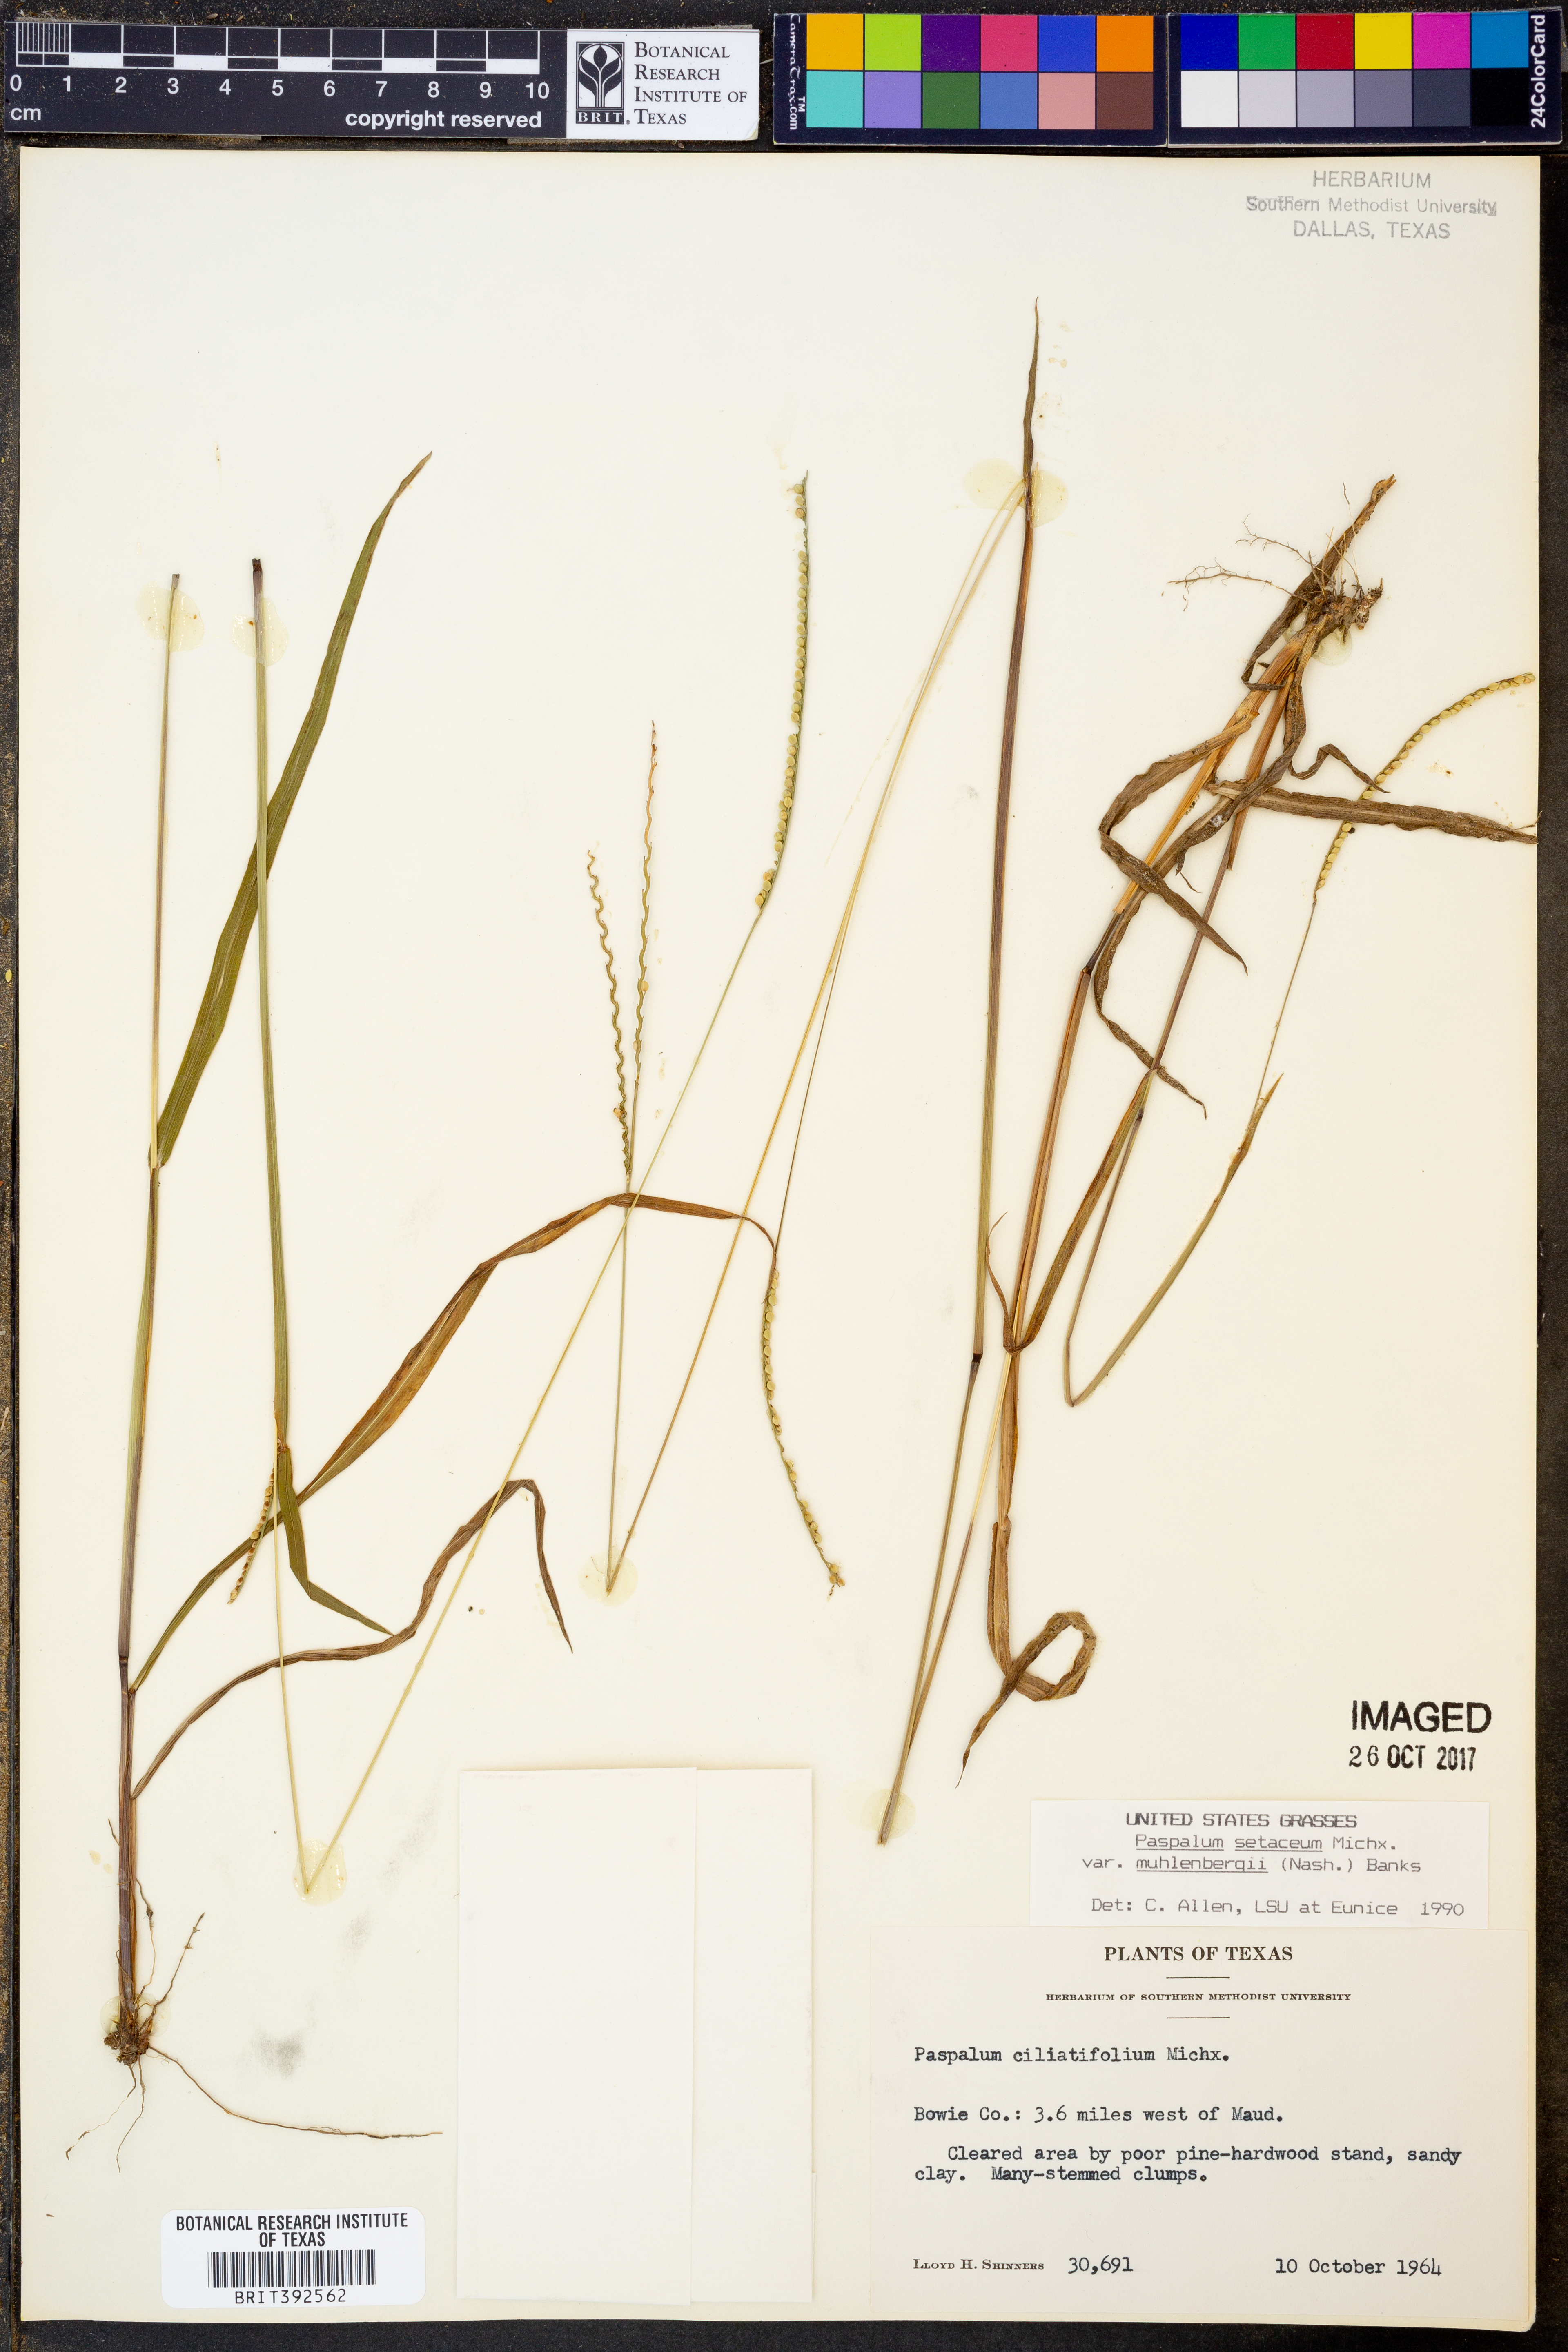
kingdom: Plantae
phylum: Tracheophyta
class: Liliopsida
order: Poales
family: Poaceae
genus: Paspalum
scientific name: Paspalum setaceum
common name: Slender paspalum
